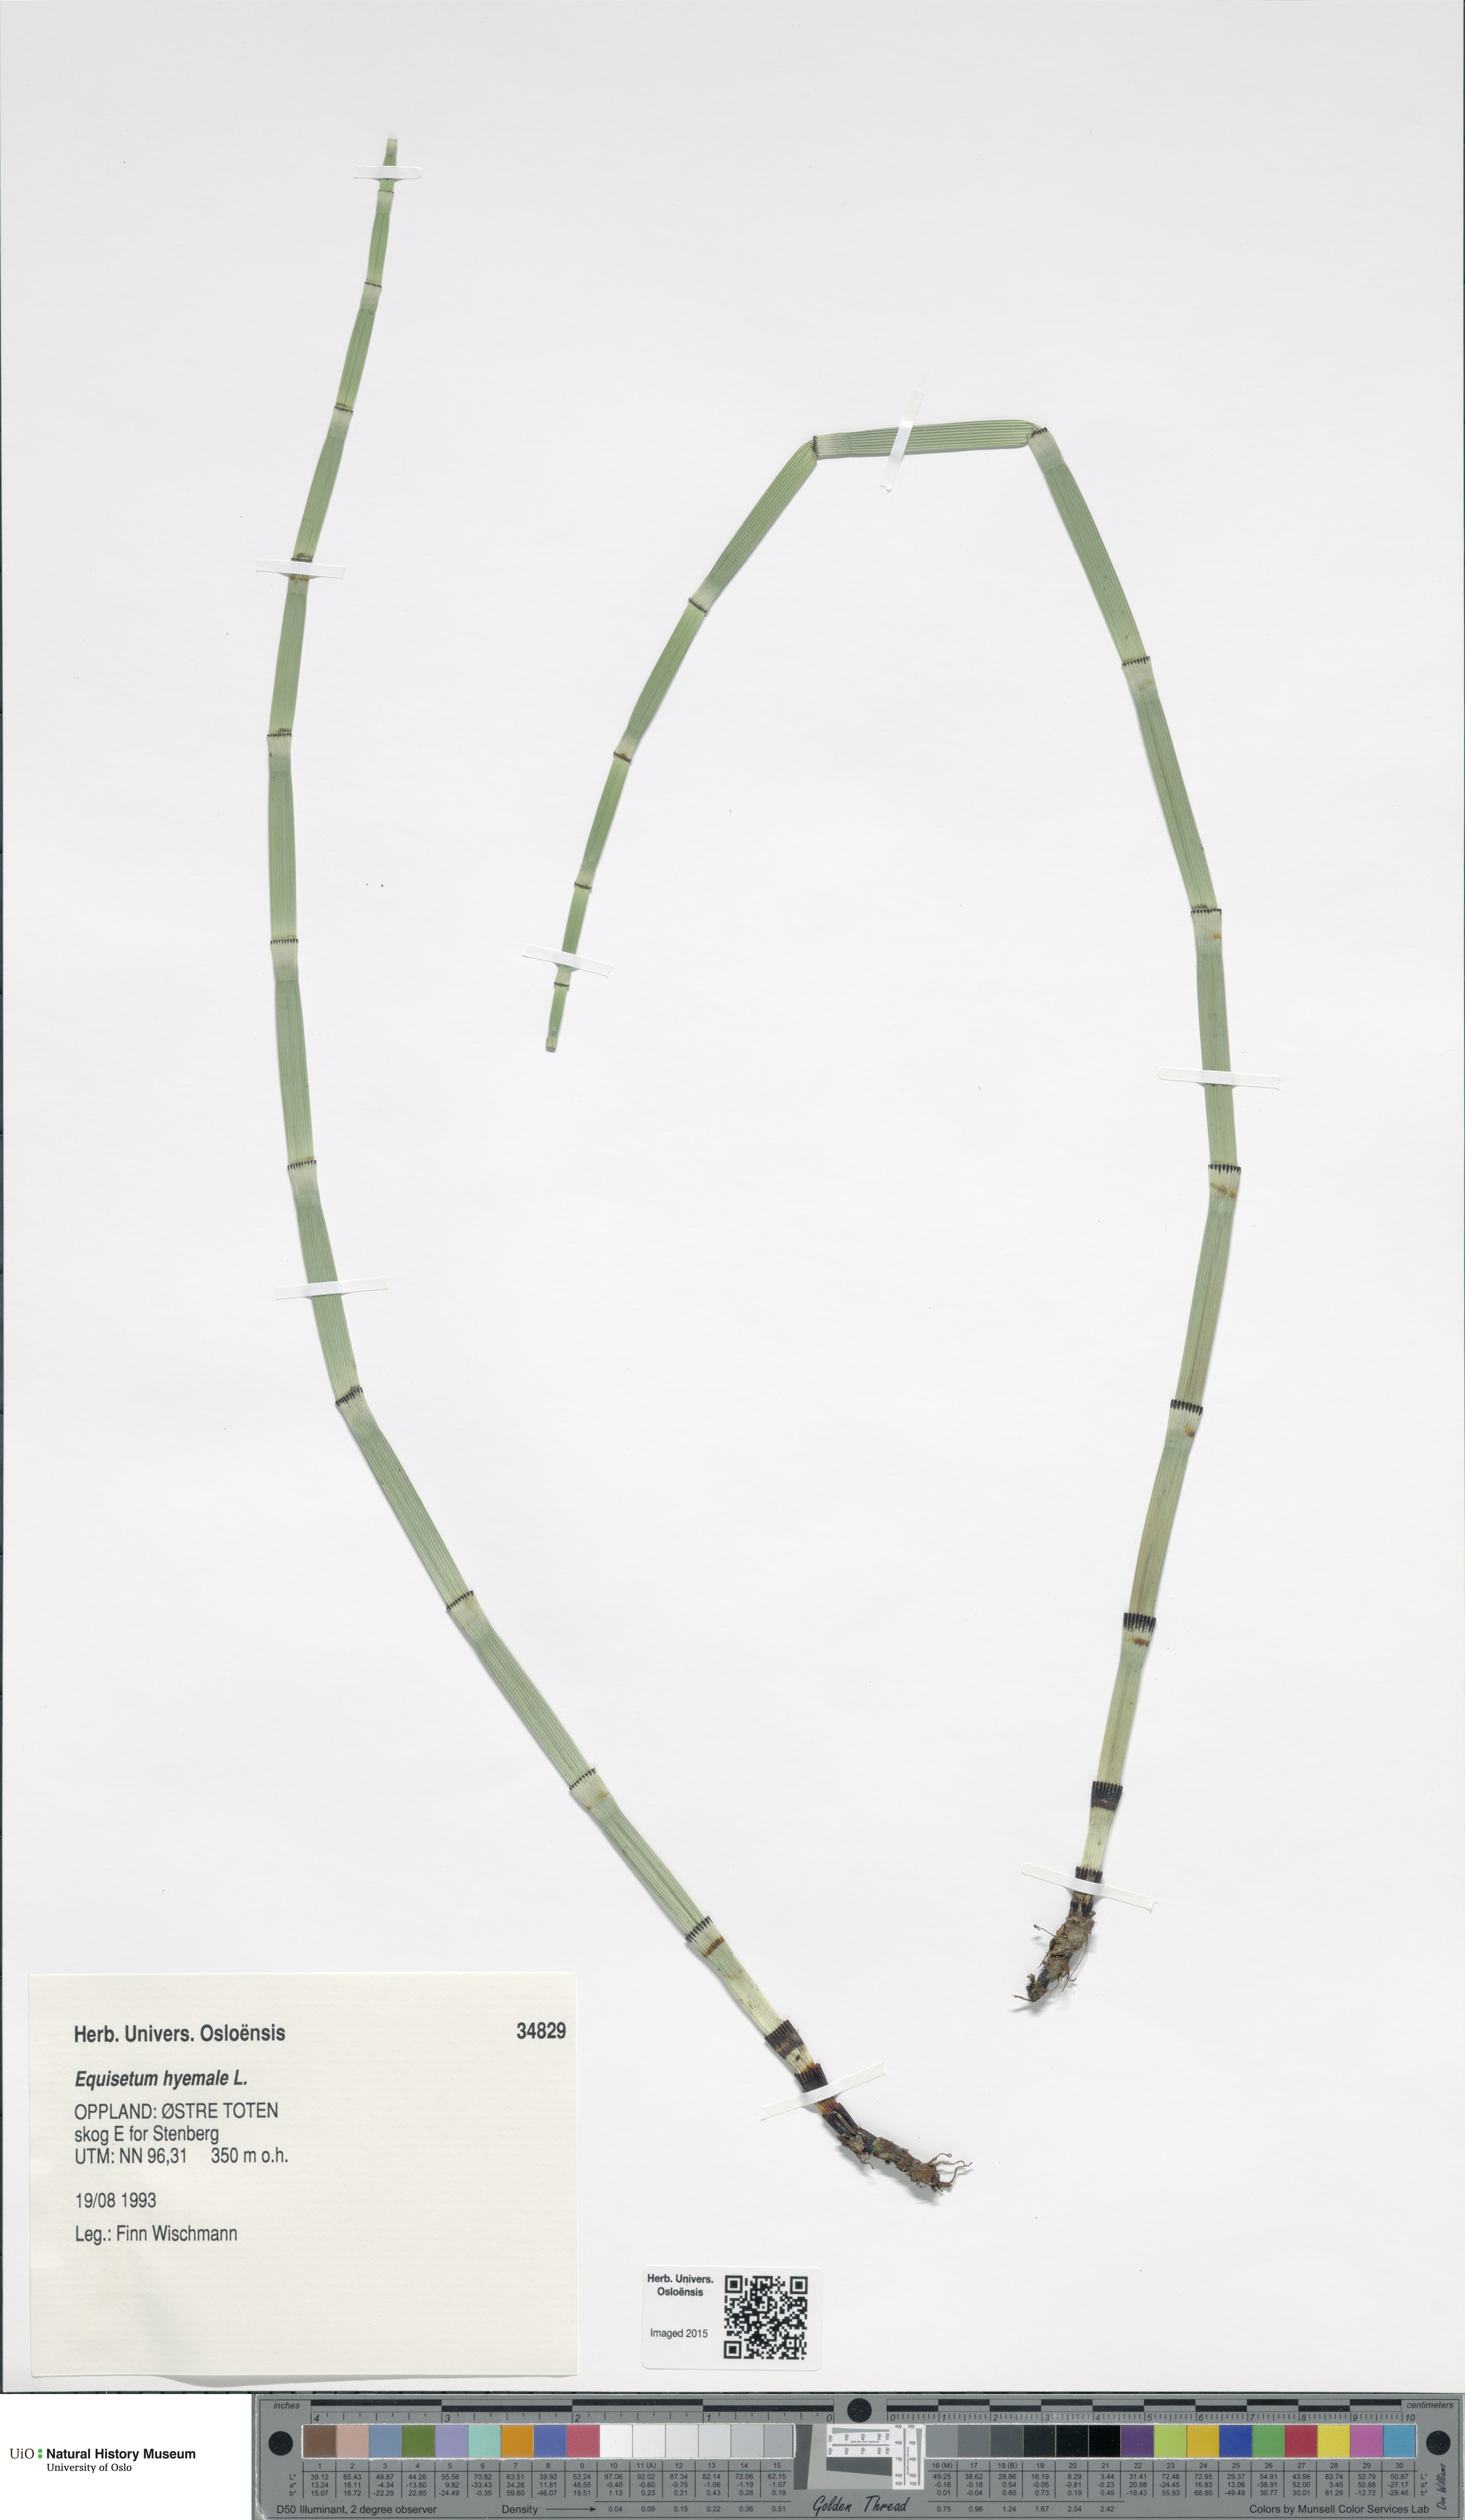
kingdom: Plantae
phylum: Tracheophyta
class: Polypodiopsida
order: Equisetales
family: Equisetaceae
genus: Equisetum
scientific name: Equisetum hyemale
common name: Rough horsetail
